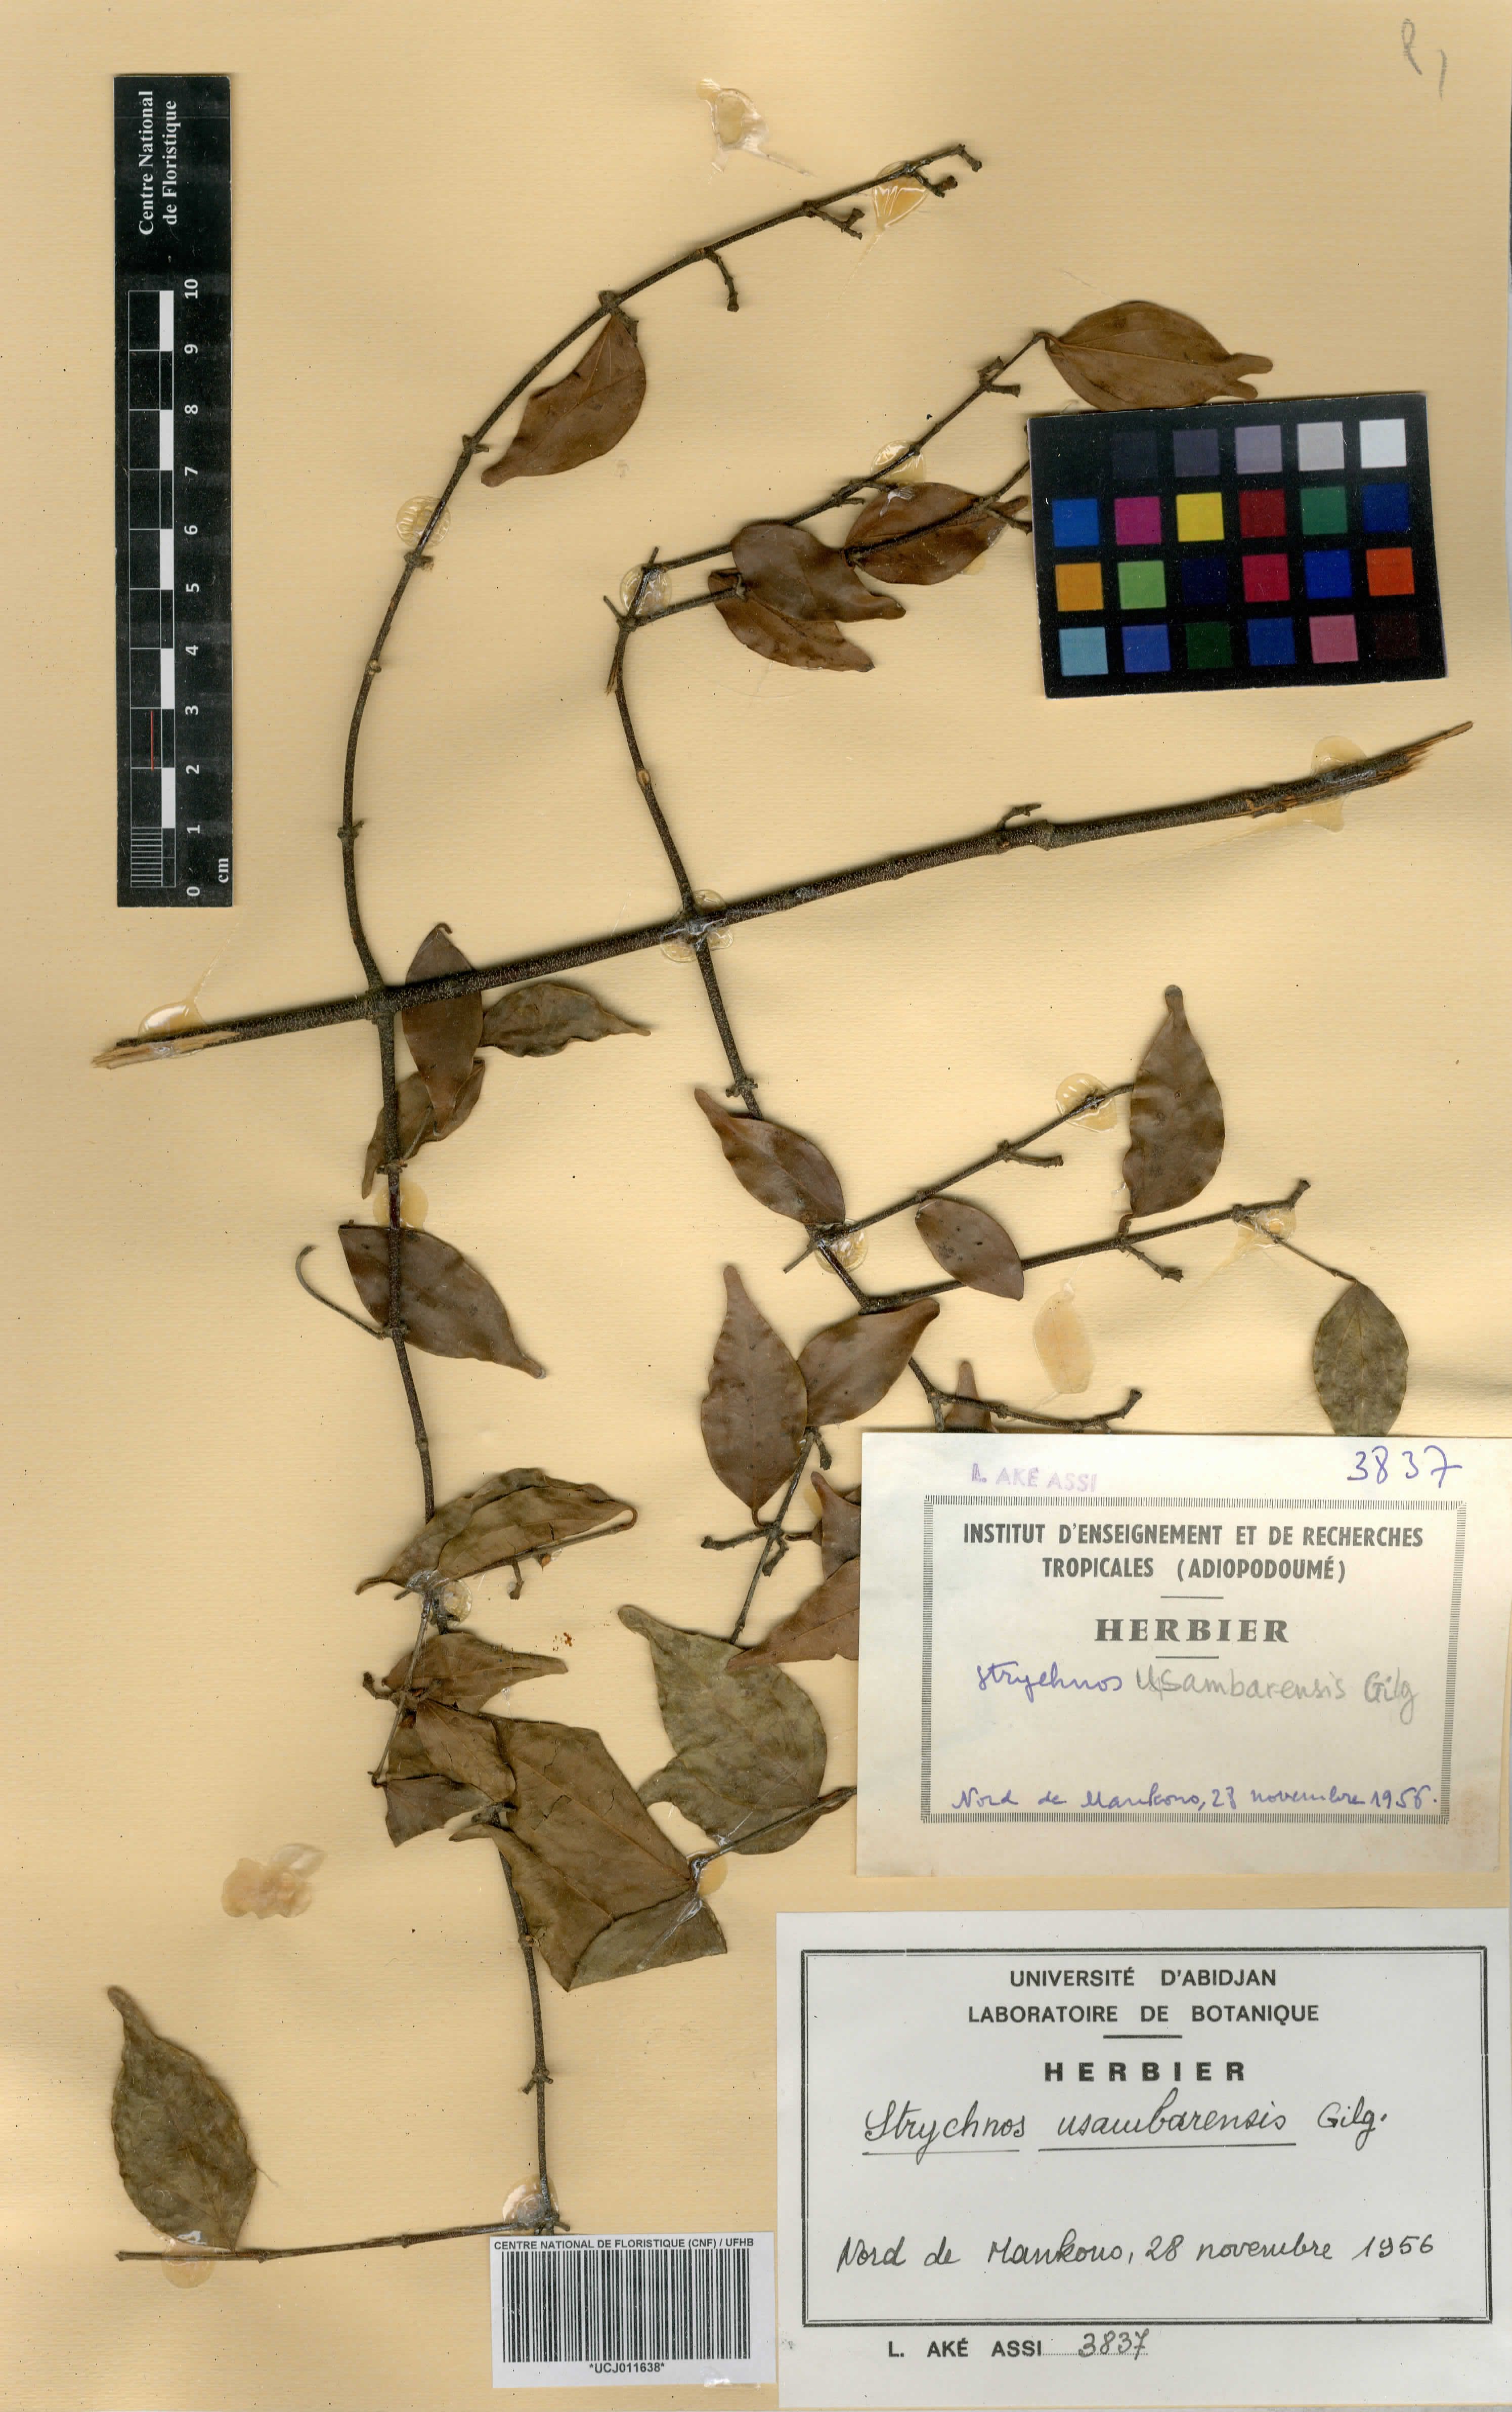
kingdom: Plantae
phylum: Tracheophyta
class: Magnoliopsida
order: Gentianales
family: Loganiaceae
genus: Strychnos
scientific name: Strychnos usambarensis
